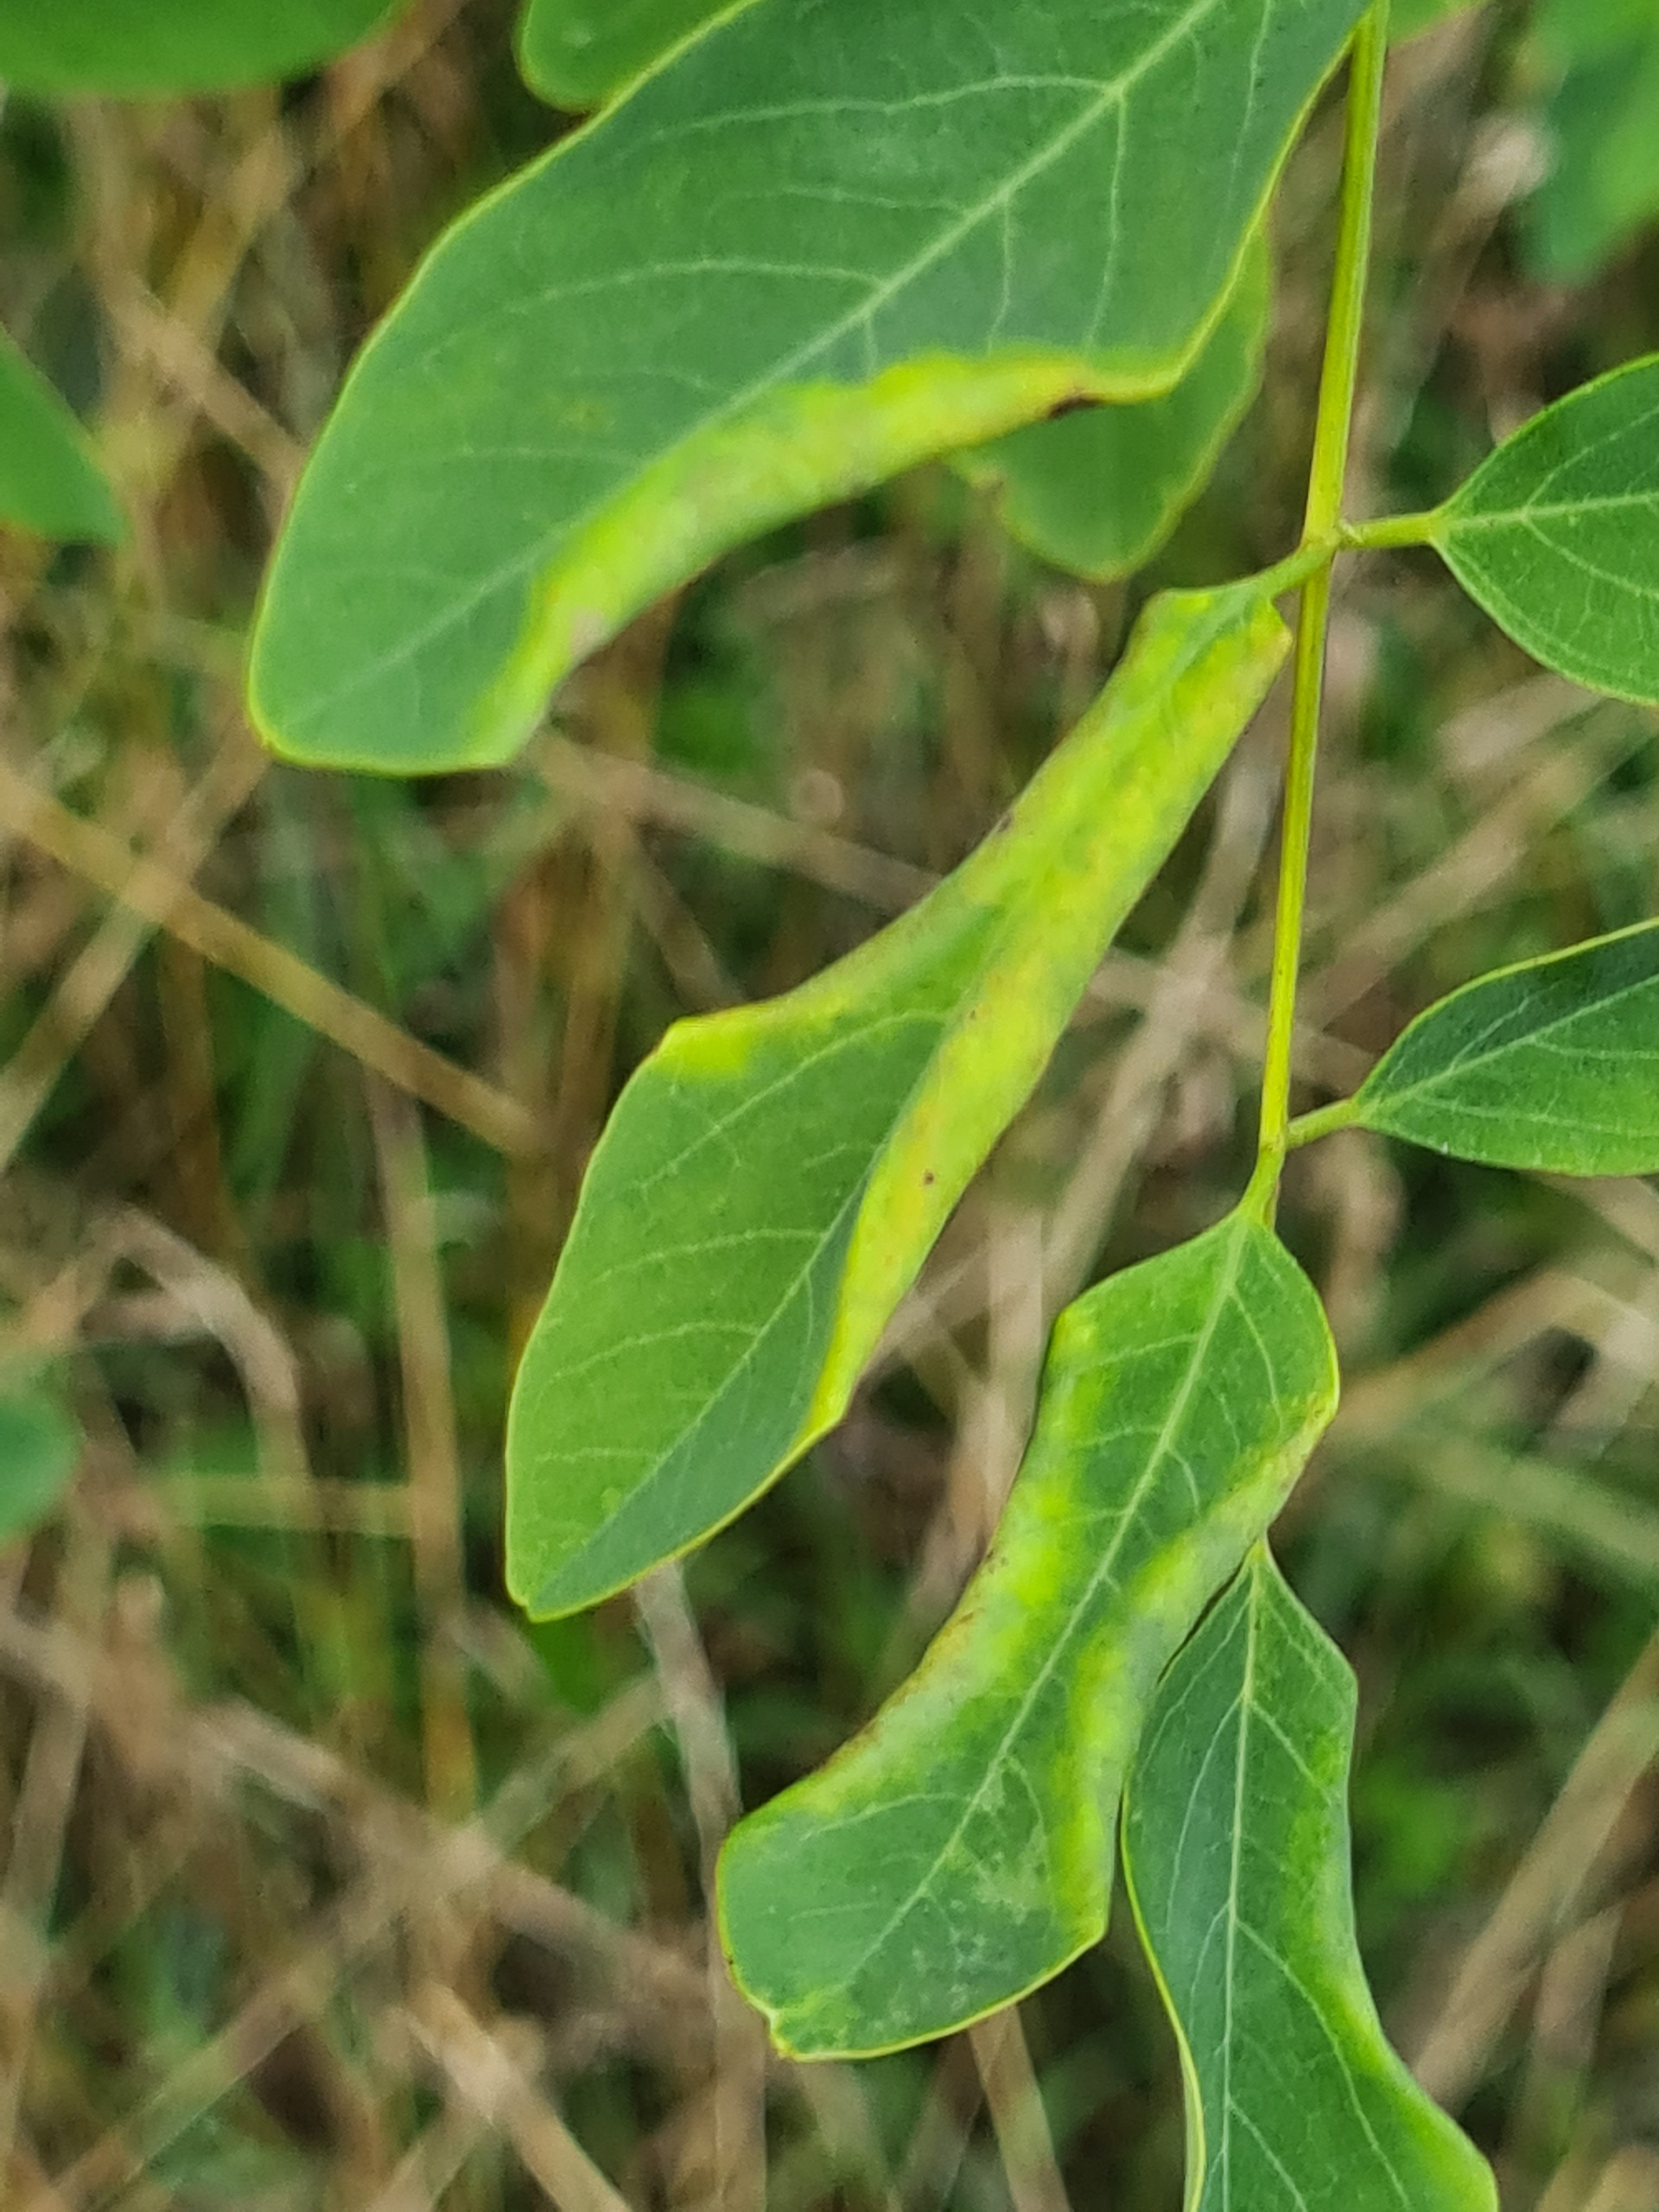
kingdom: Animalia
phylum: Arthropoda
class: Insecta
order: Diptera
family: Cecidomyiidae
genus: Obolodiplosis
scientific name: Obolodiplosis robiniae
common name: Robiniegalmyg
